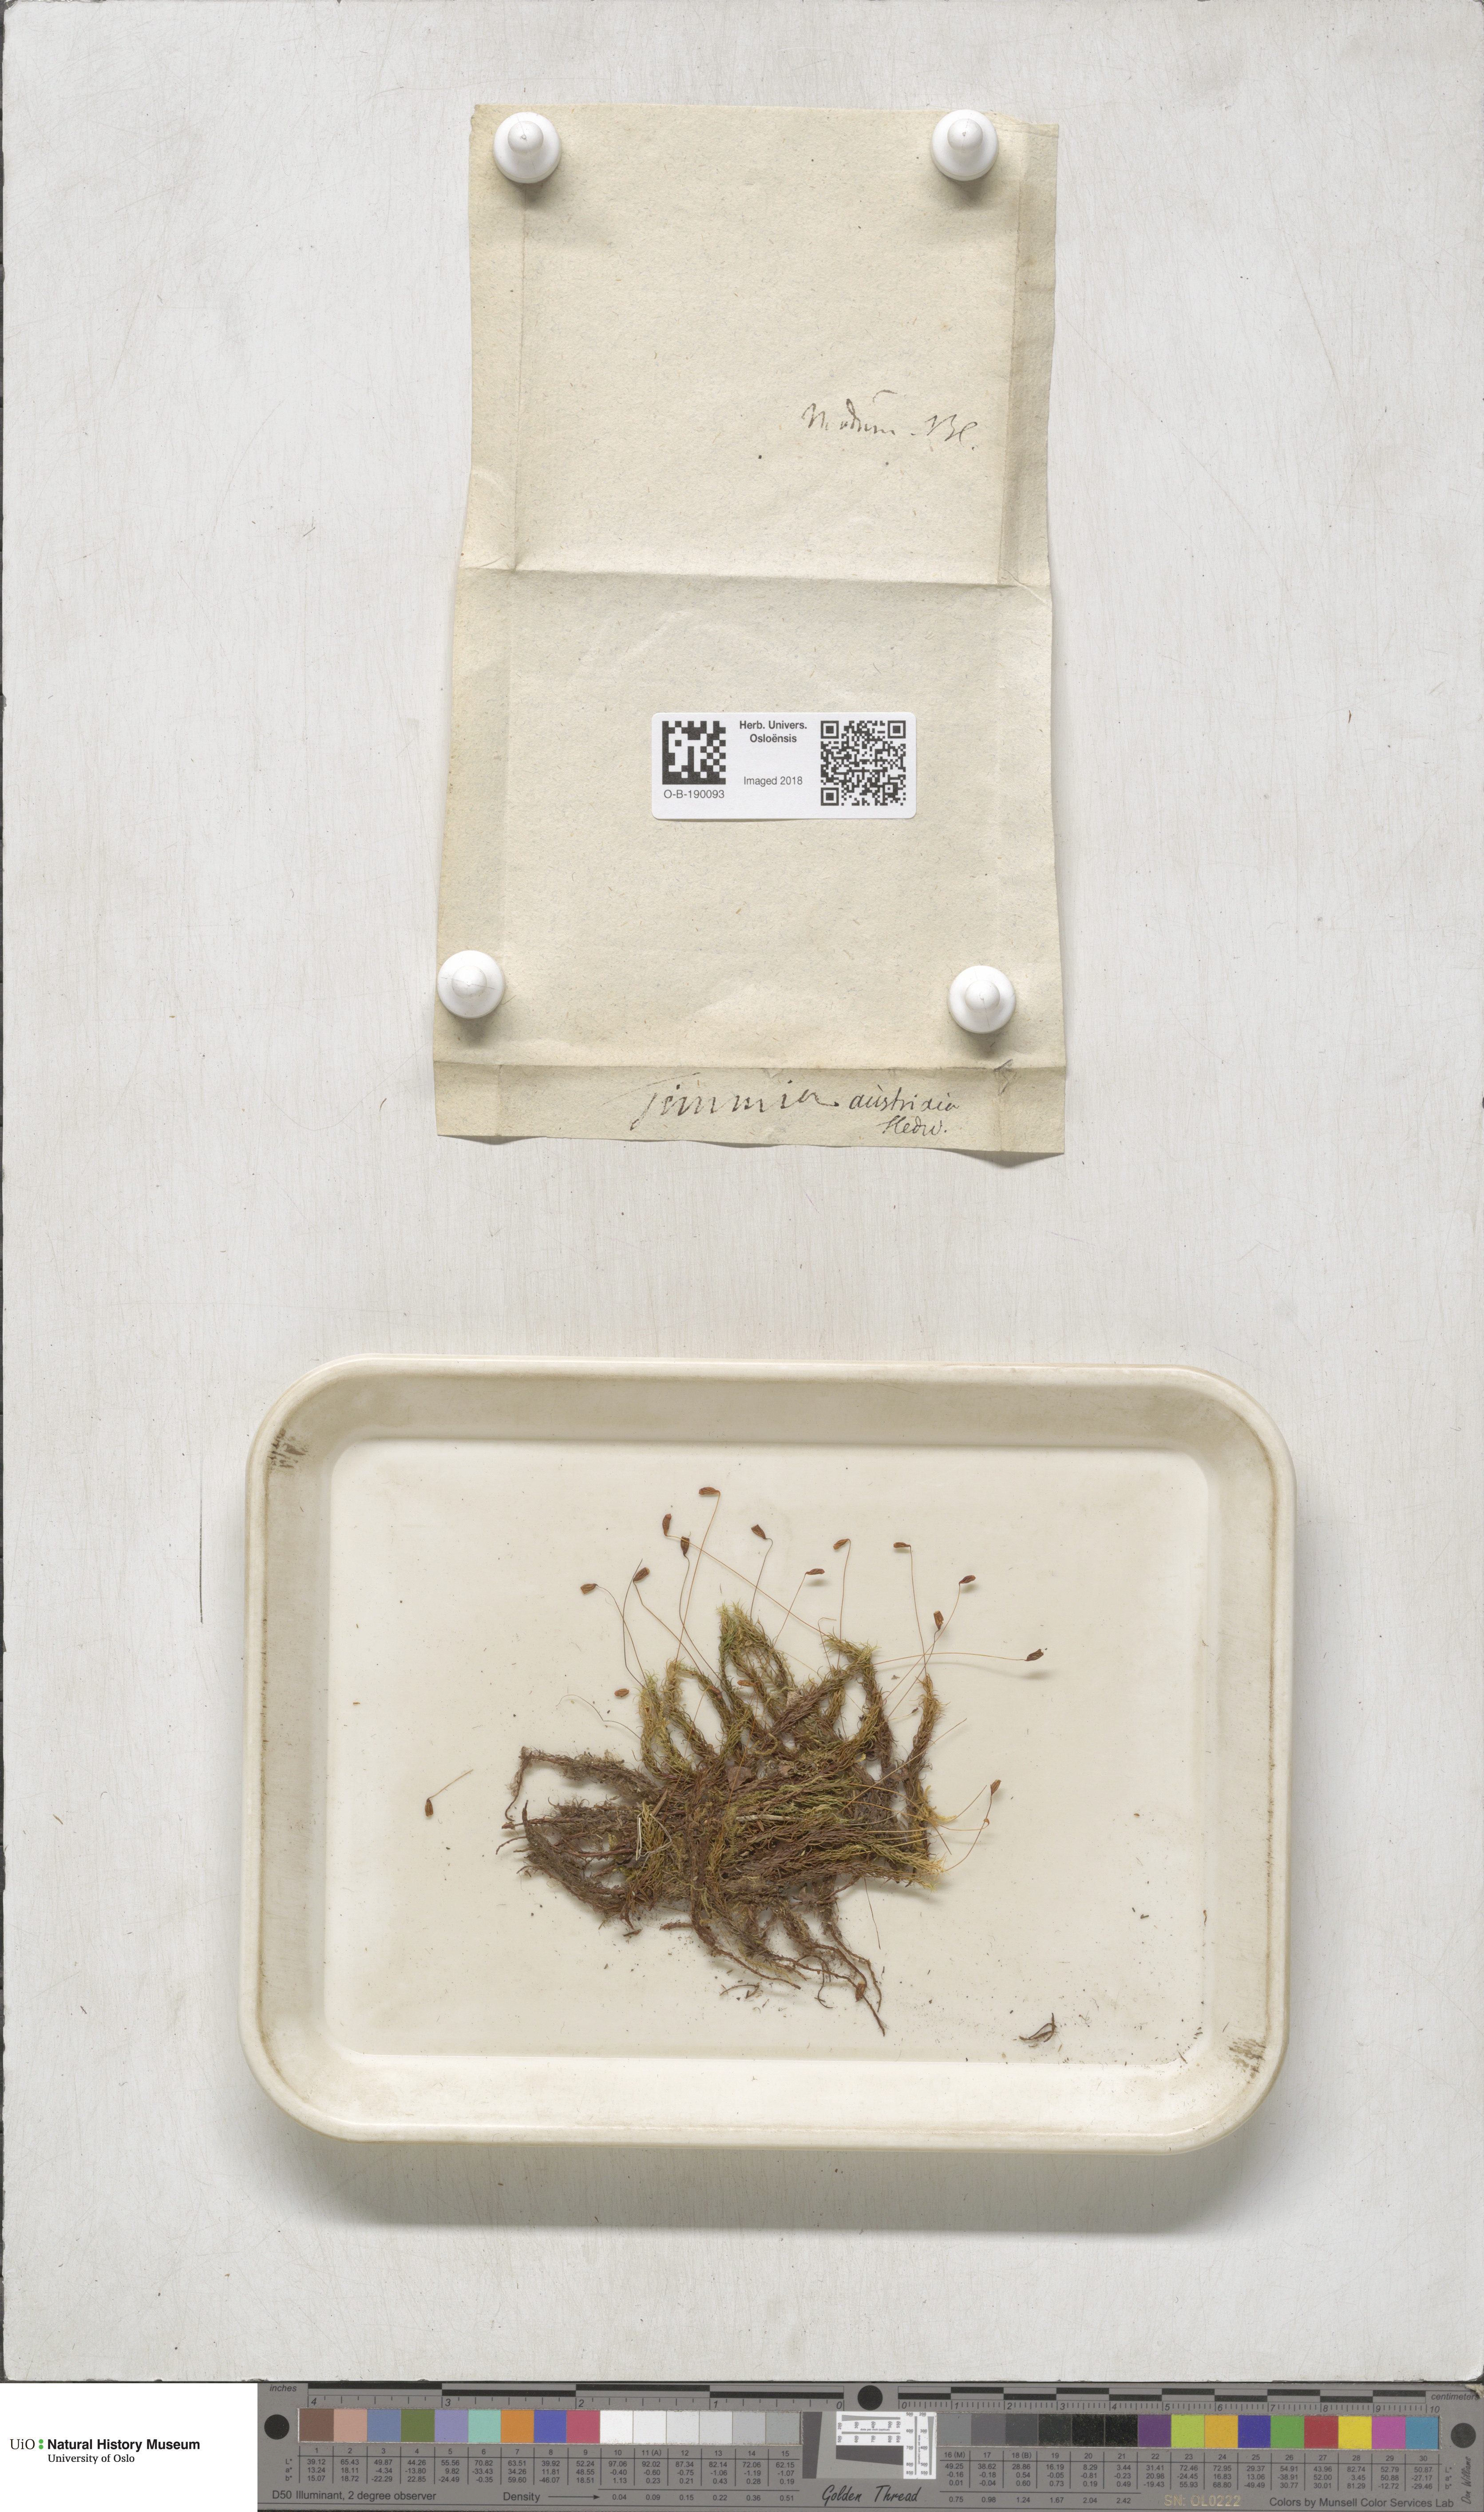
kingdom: Plantae
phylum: Bryophyta
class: Bryopsida
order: Timmiales
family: Timmiaceae
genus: Timmia
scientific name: Timmia austriaca
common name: Austrian timmia
